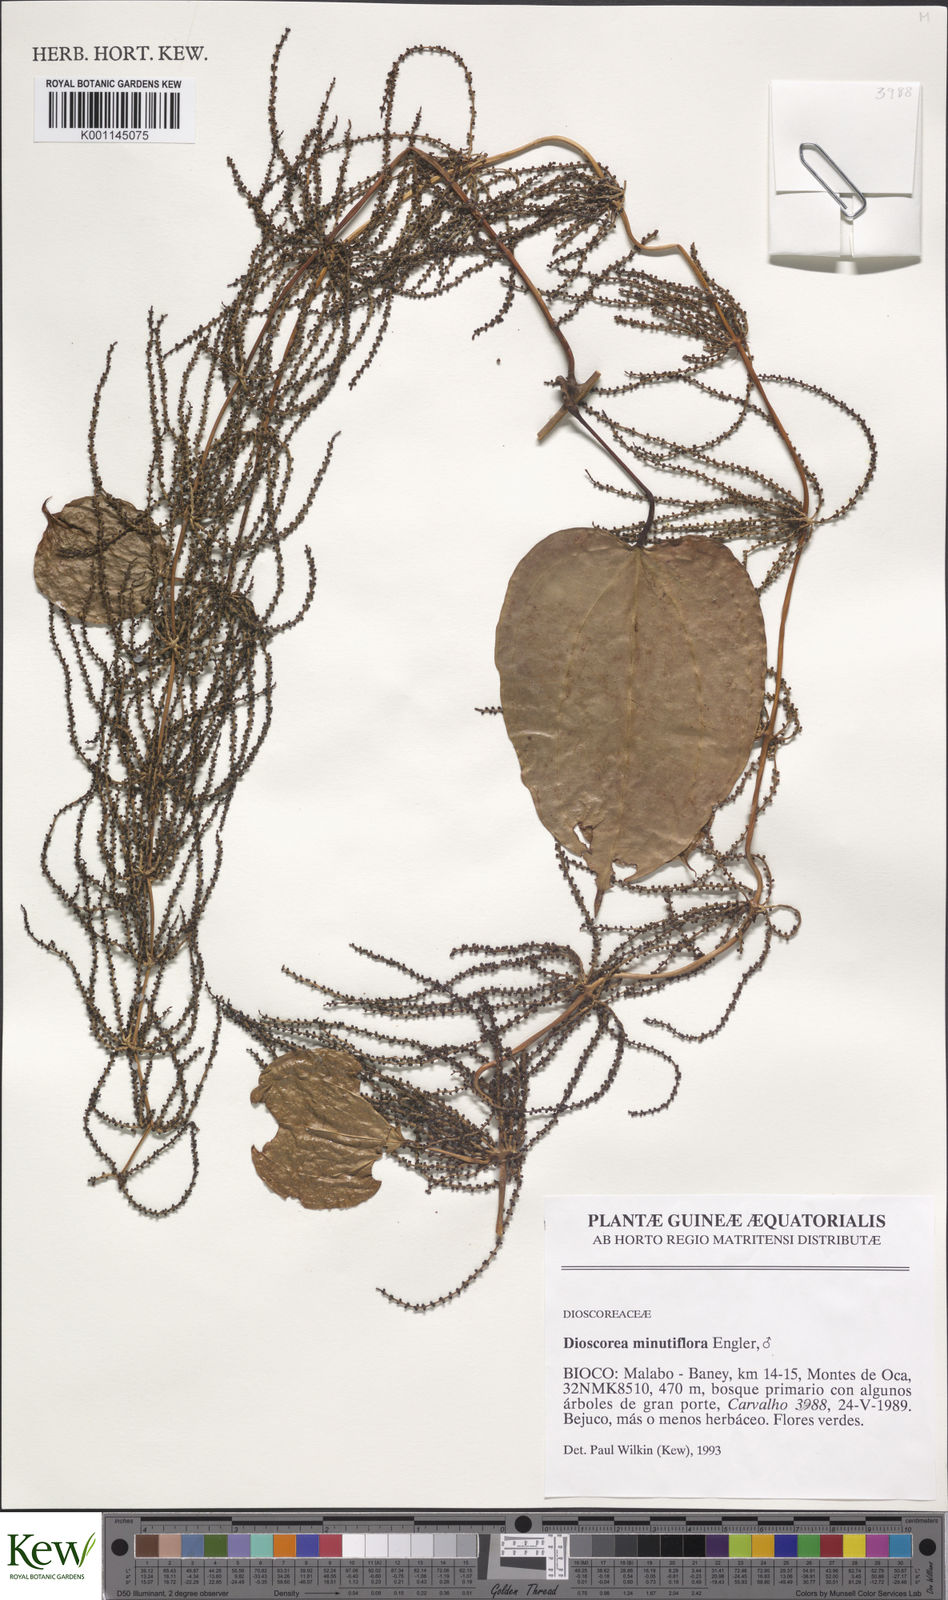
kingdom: Plantae
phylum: Tracheophyta
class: Liliopsida
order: Dioscoreales
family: Dioscoreaceae
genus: Dioscorea
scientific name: Dioscorea minutiflora
